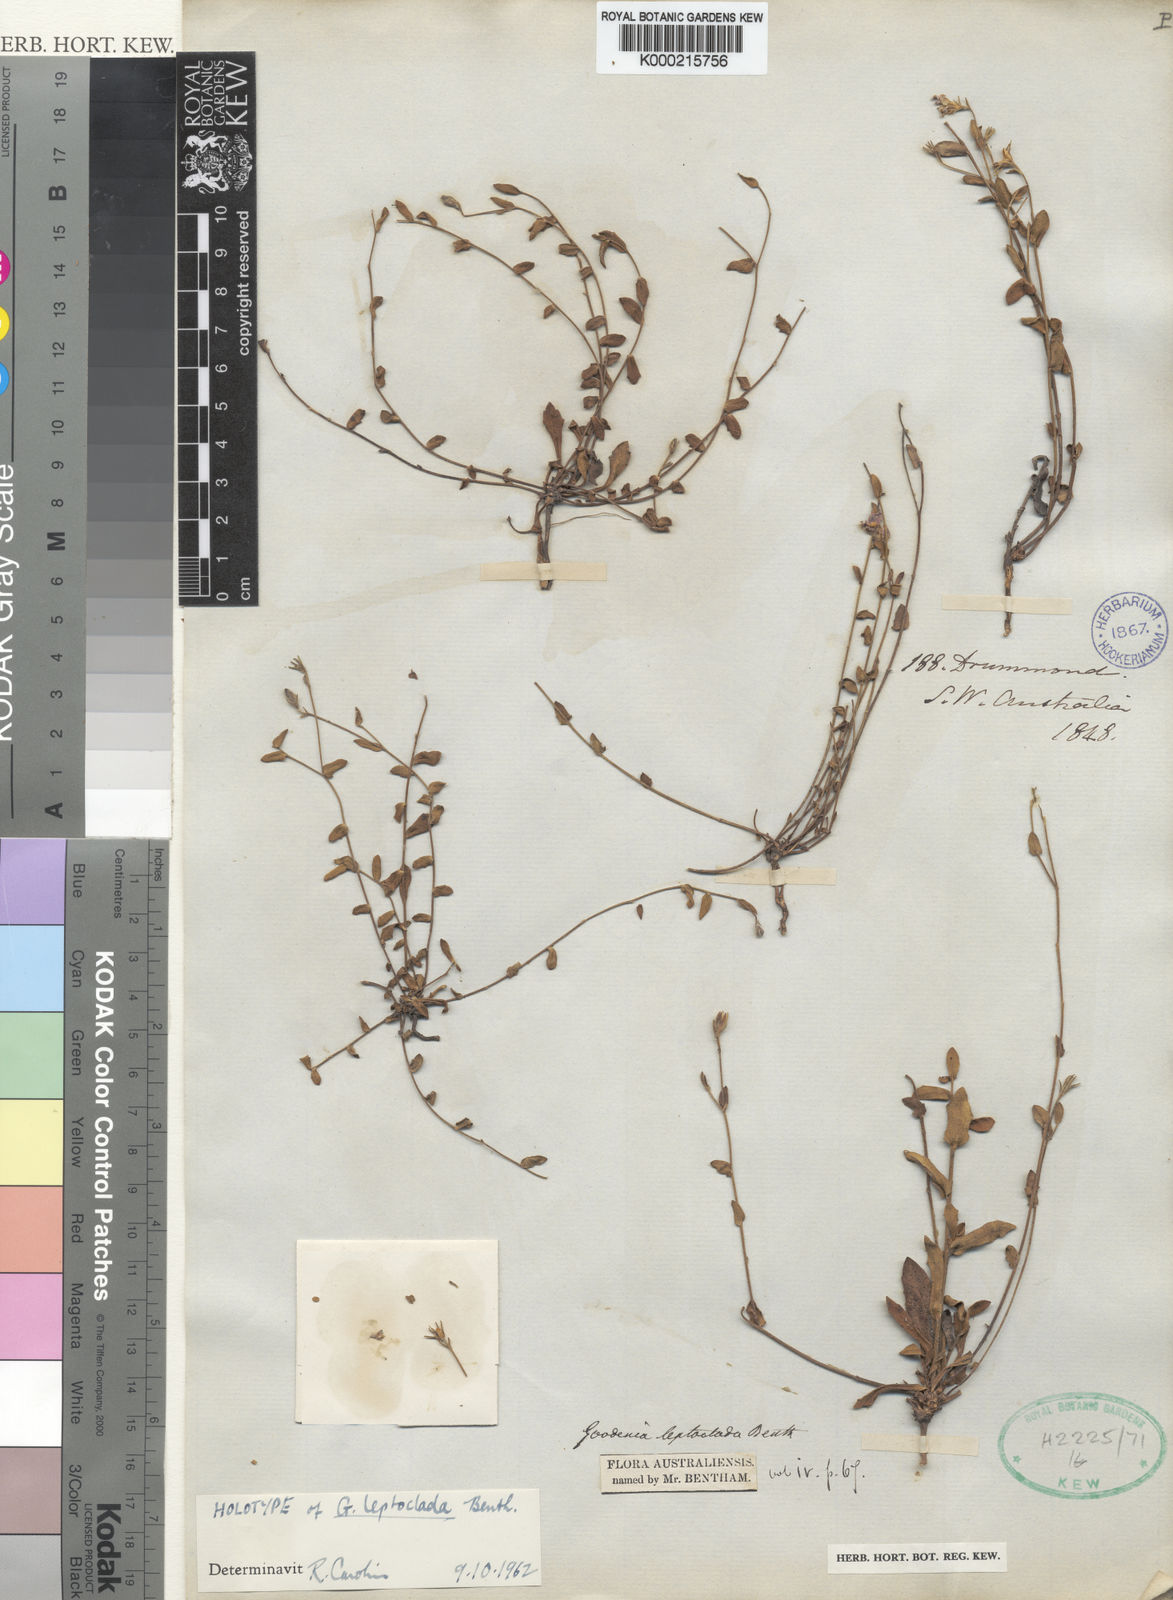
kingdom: Plantae
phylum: Tracheophyta
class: Magnoliopsida
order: Asterales
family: Goodeniaceae
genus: Goodenia
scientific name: Goodenia leptoclada
